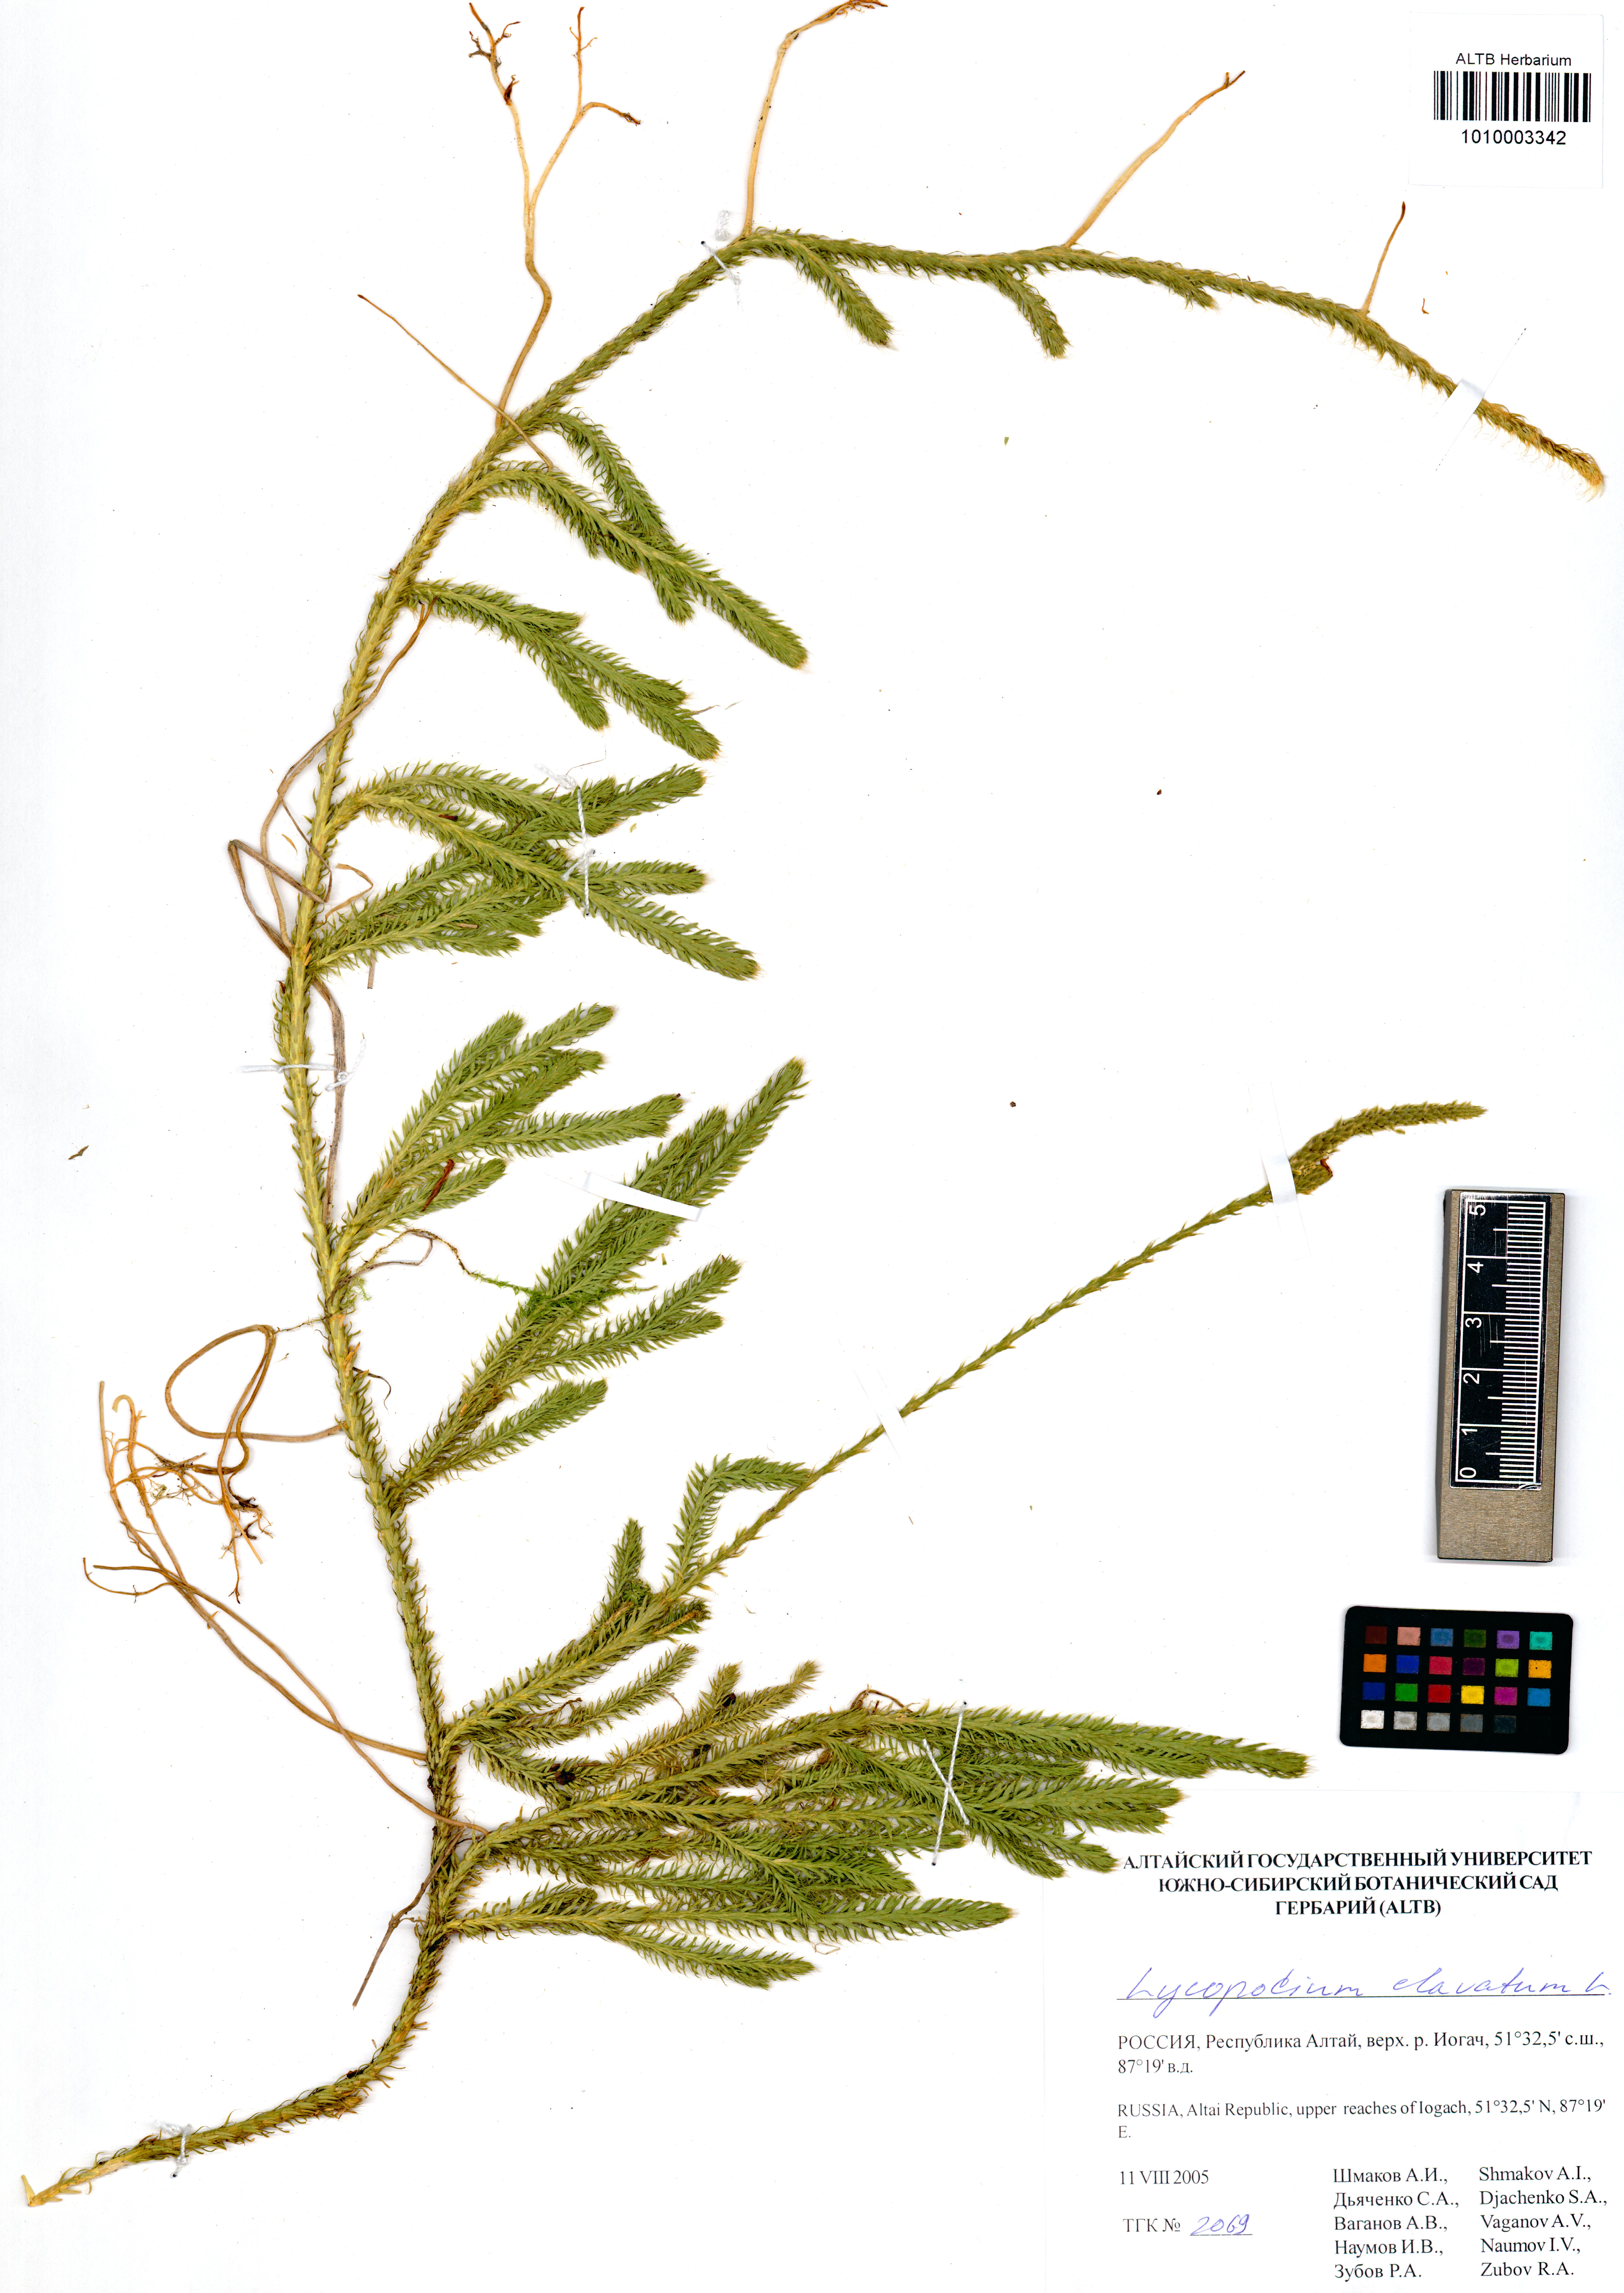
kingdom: Plantae
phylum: Tracheophyta
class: Lycopodiopsida
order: Lycopodiales
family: Lycopodiaceae
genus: Lycopodium
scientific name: Lycopodium clavatum
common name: Stag's-horn clubmoss
